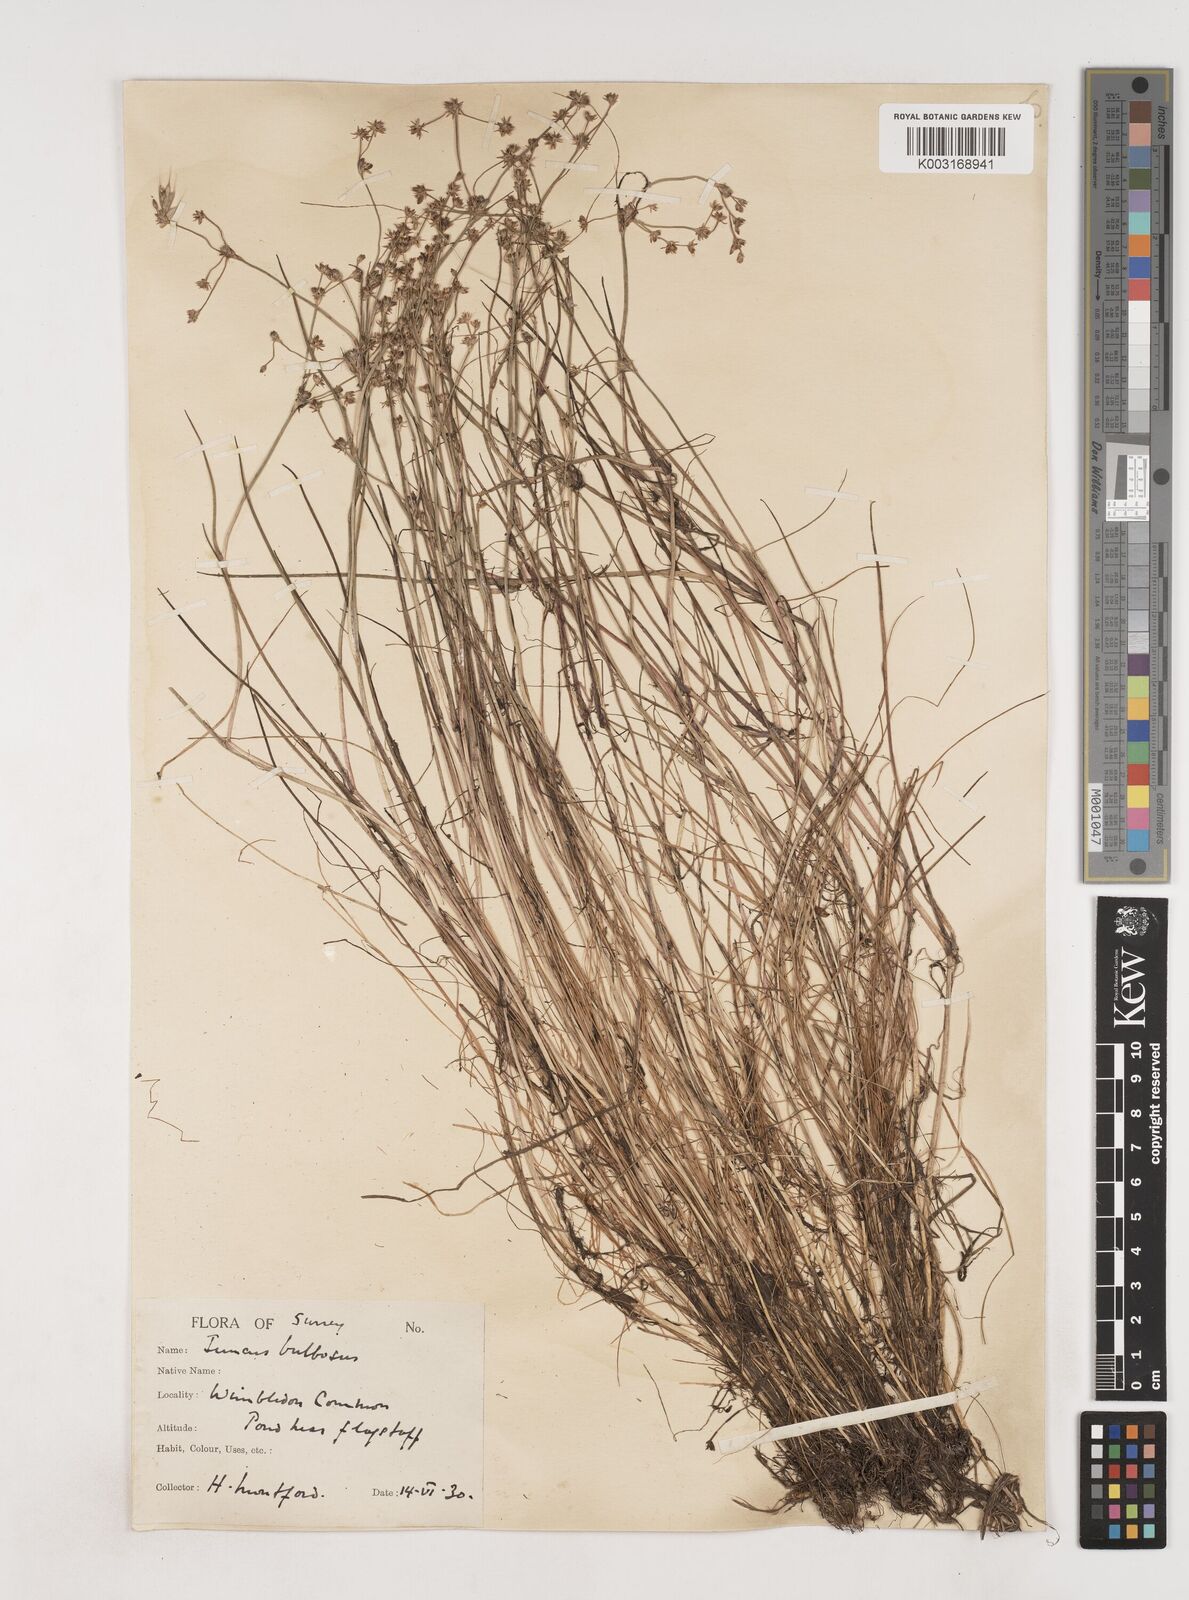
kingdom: Plantae
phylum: Tracheophyta
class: Liliopsida
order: Poales
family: Juncaceae
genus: Juncus
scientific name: Juncus bulbosus
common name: Bulbous rush
